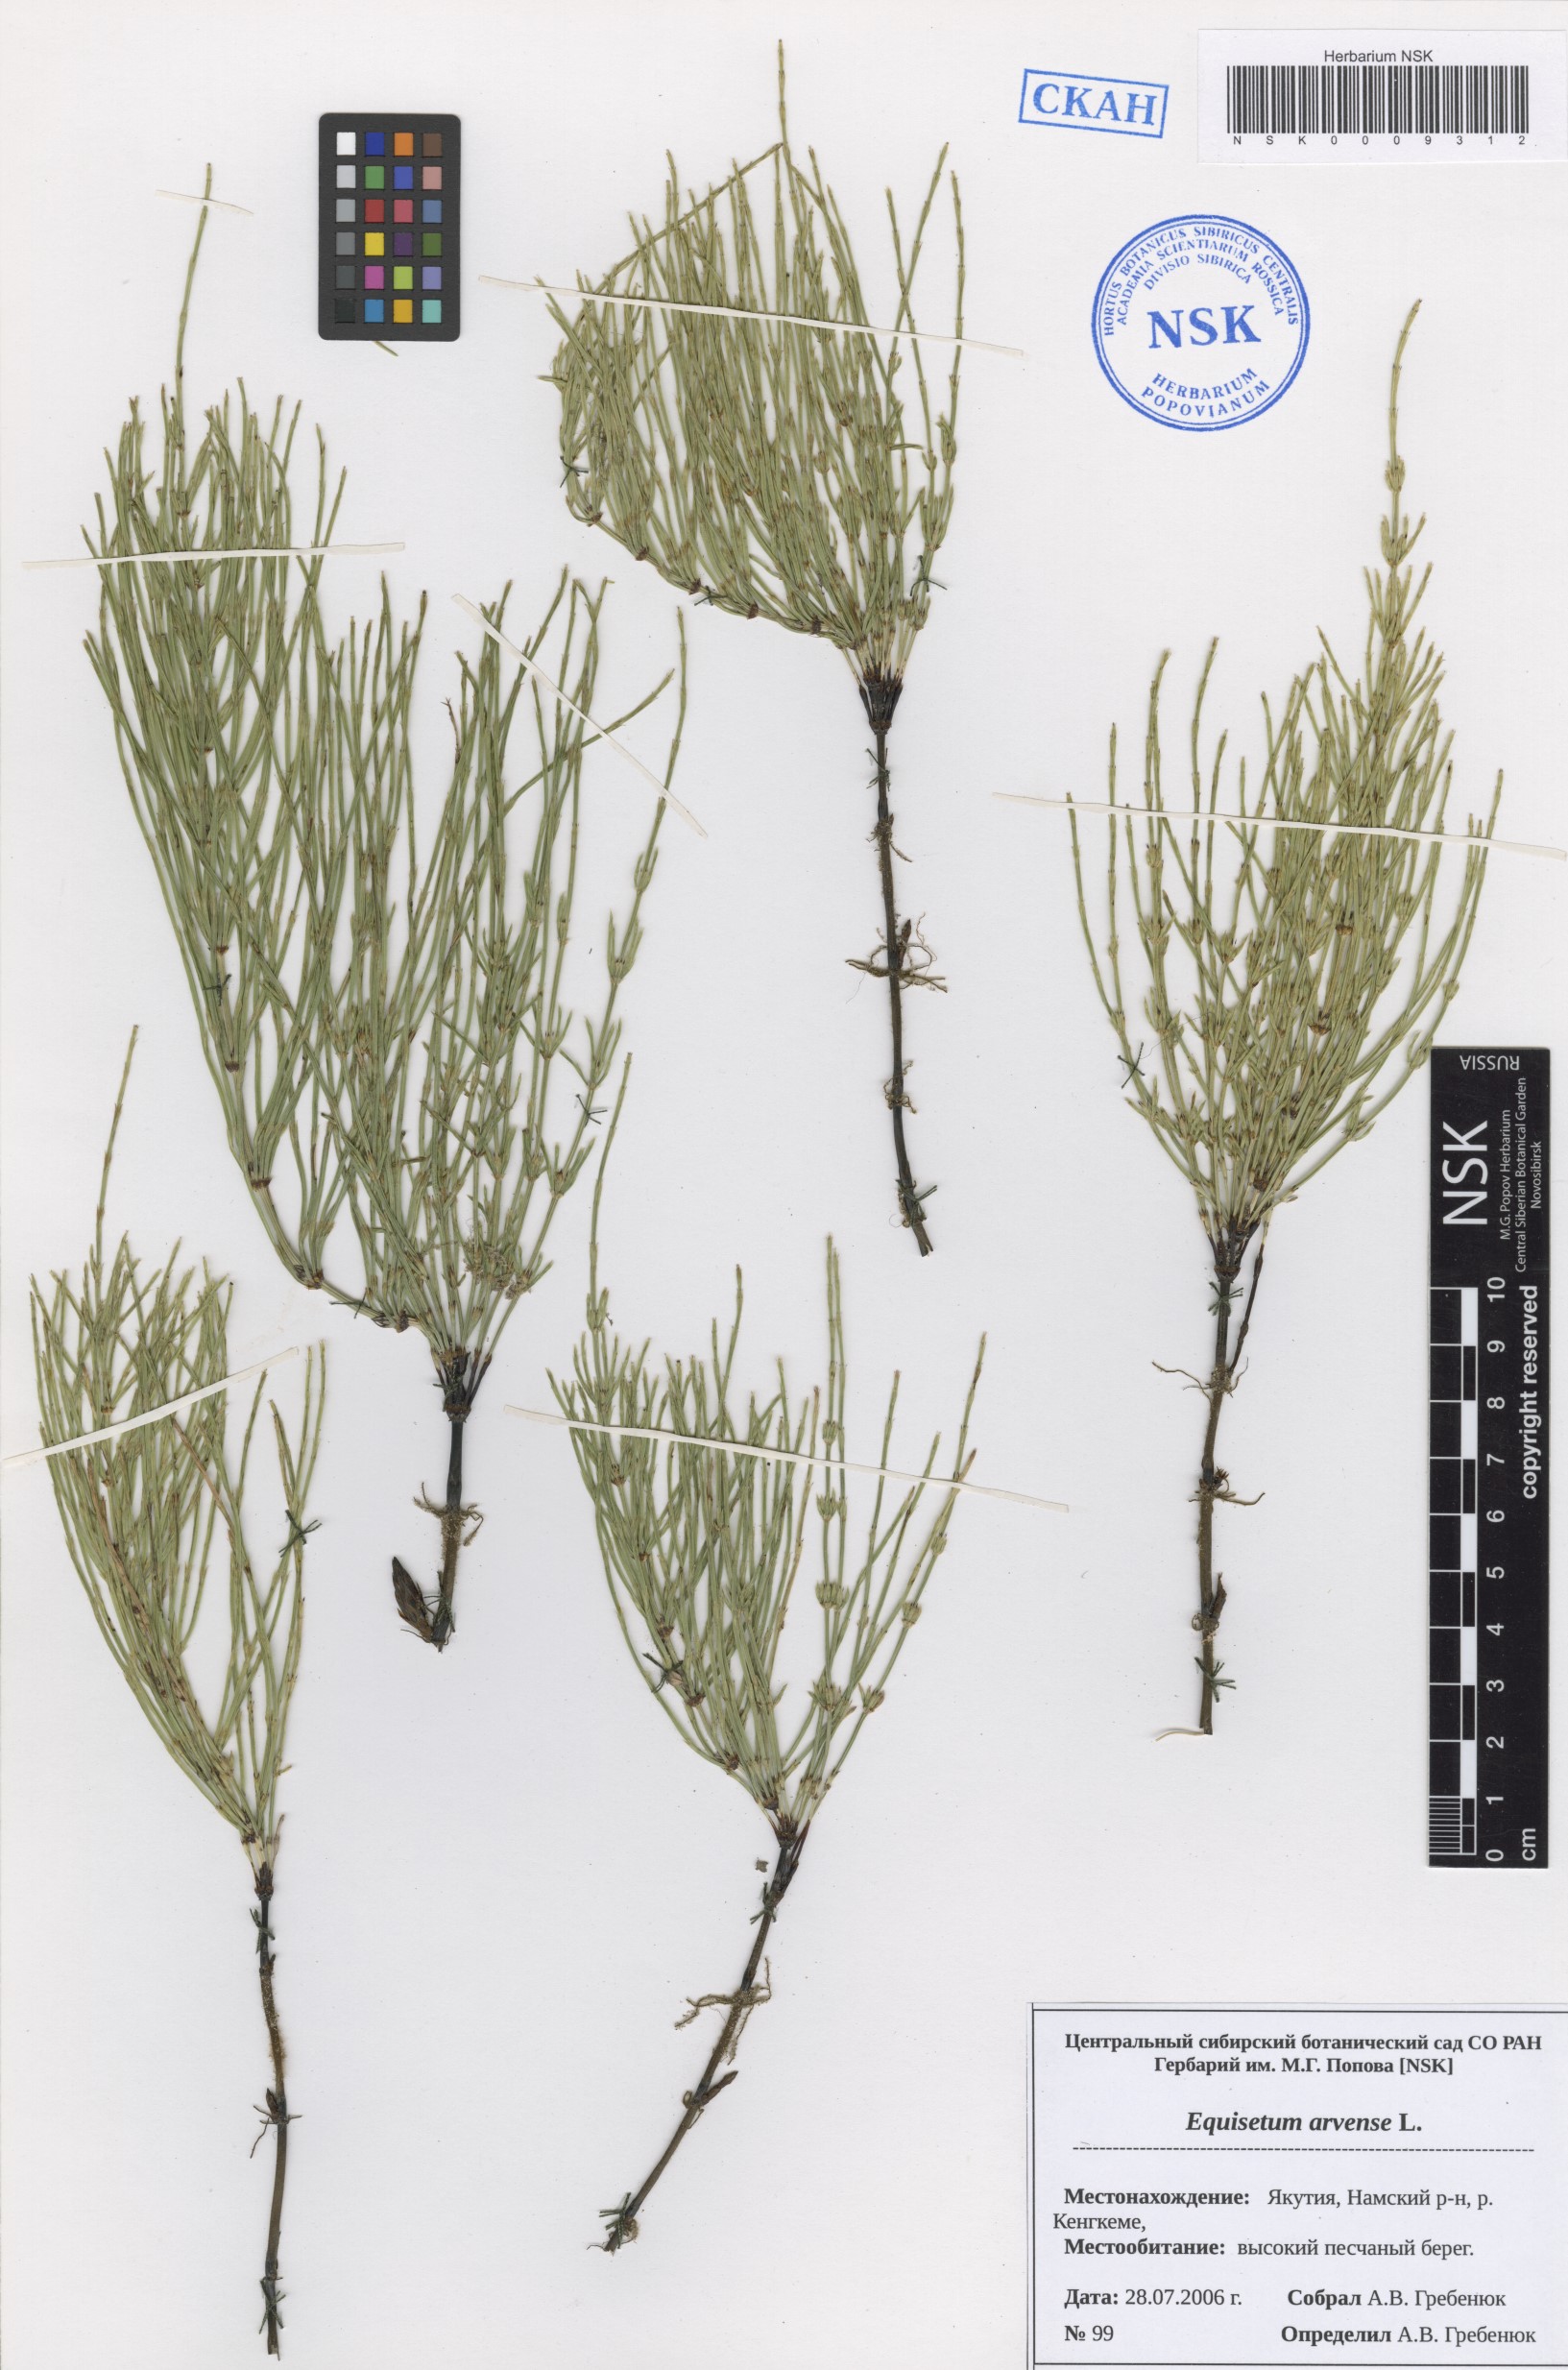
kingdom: Plantae
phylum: Tracheophyta
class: Polypodiopsida
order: Equisetales
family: Equisetaceae
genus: Equisetum
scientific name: Equisetum arvense
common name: Field horsetail
